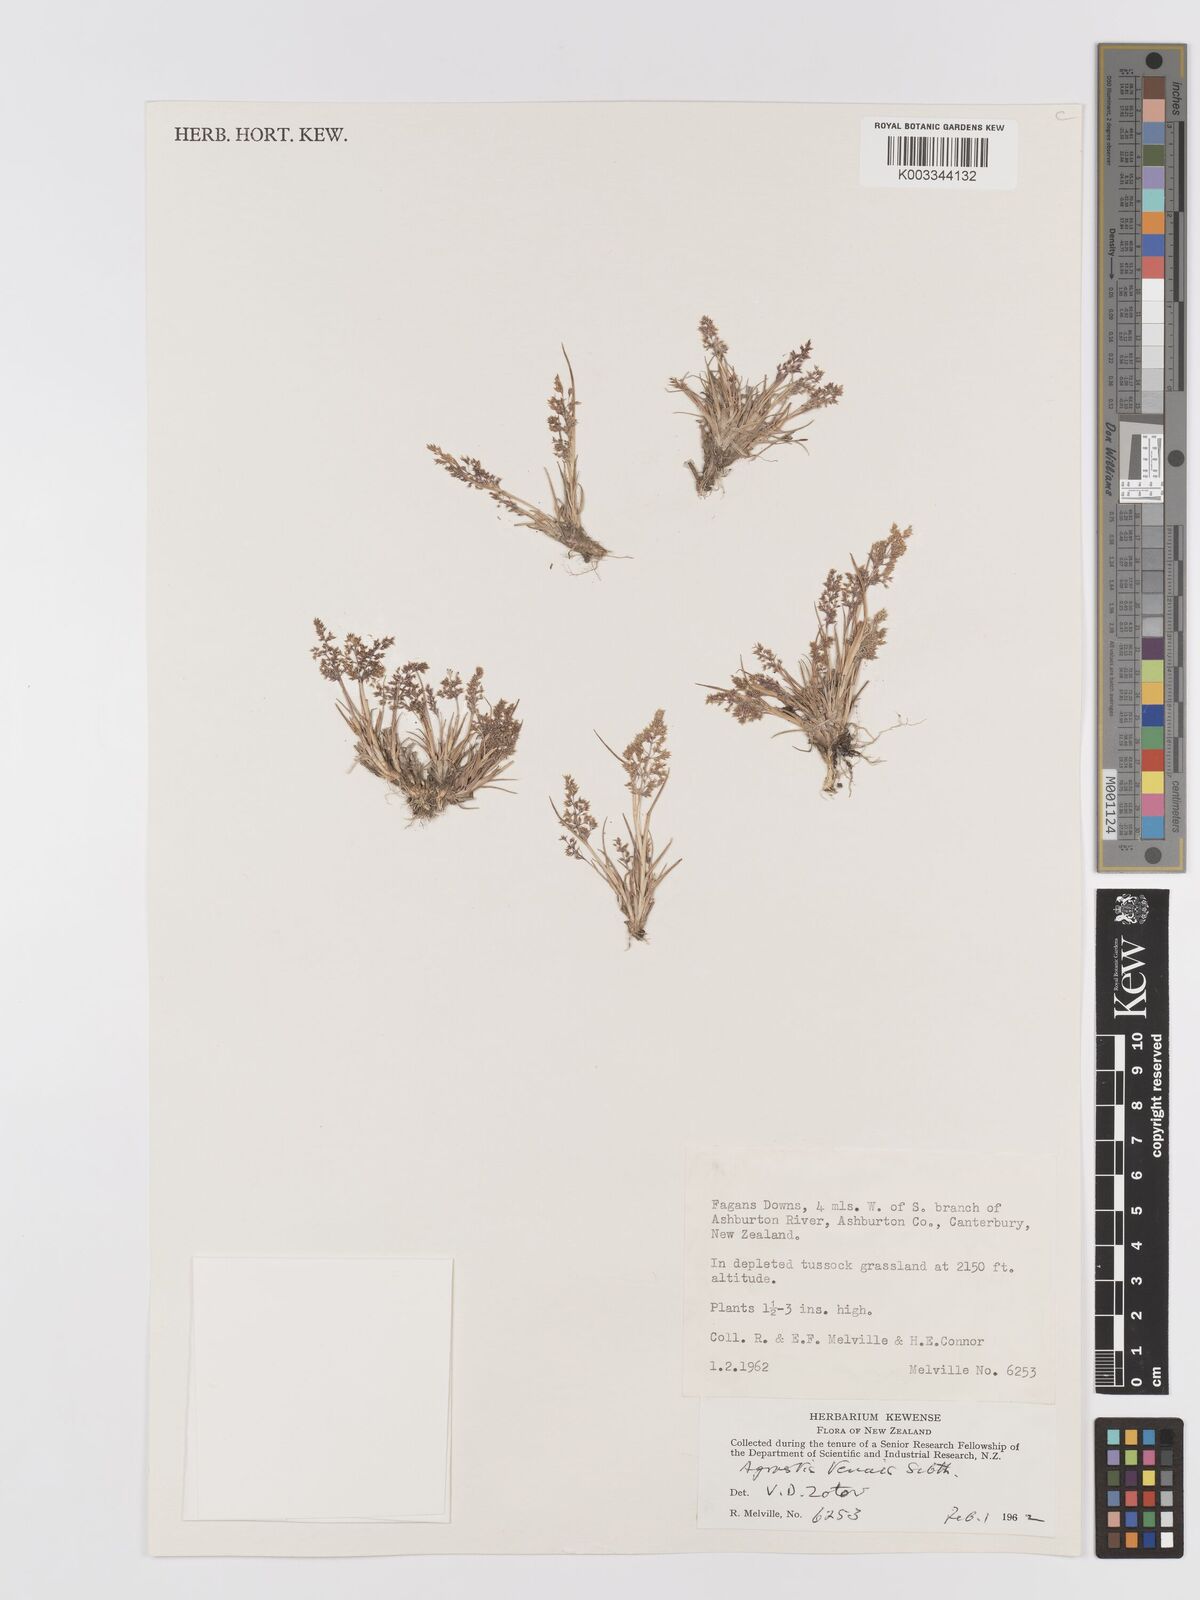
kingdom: Plantae
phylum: Tracheophyta
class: Liliopsida
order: Poales
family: Poaceae
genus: Agrostis
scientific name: Agrostis capillaris
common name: Colonial bentgrass
